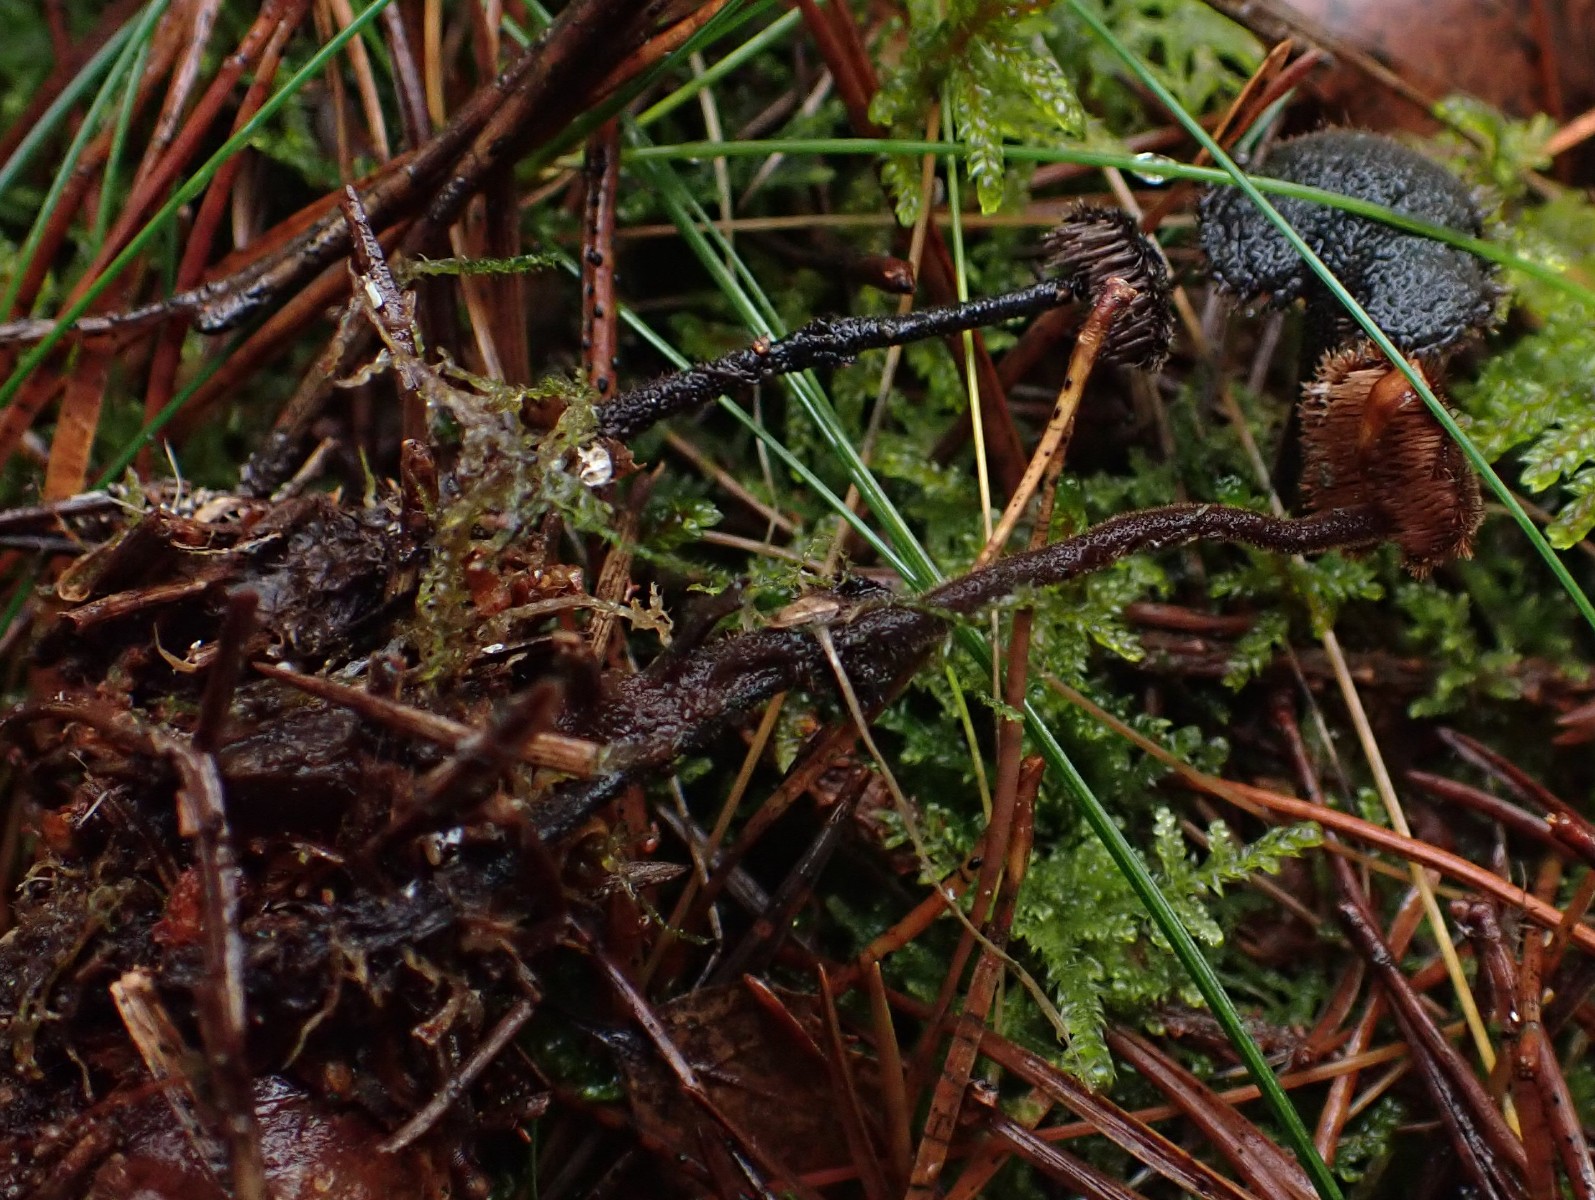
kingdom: Fungi
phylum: Basidiomycota
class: Agaricomycetes
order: Russulales
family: Auriscalpiaceae
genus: Auriscalpium
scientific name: Auriscalpium vulgare
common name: koglepigsvamp
